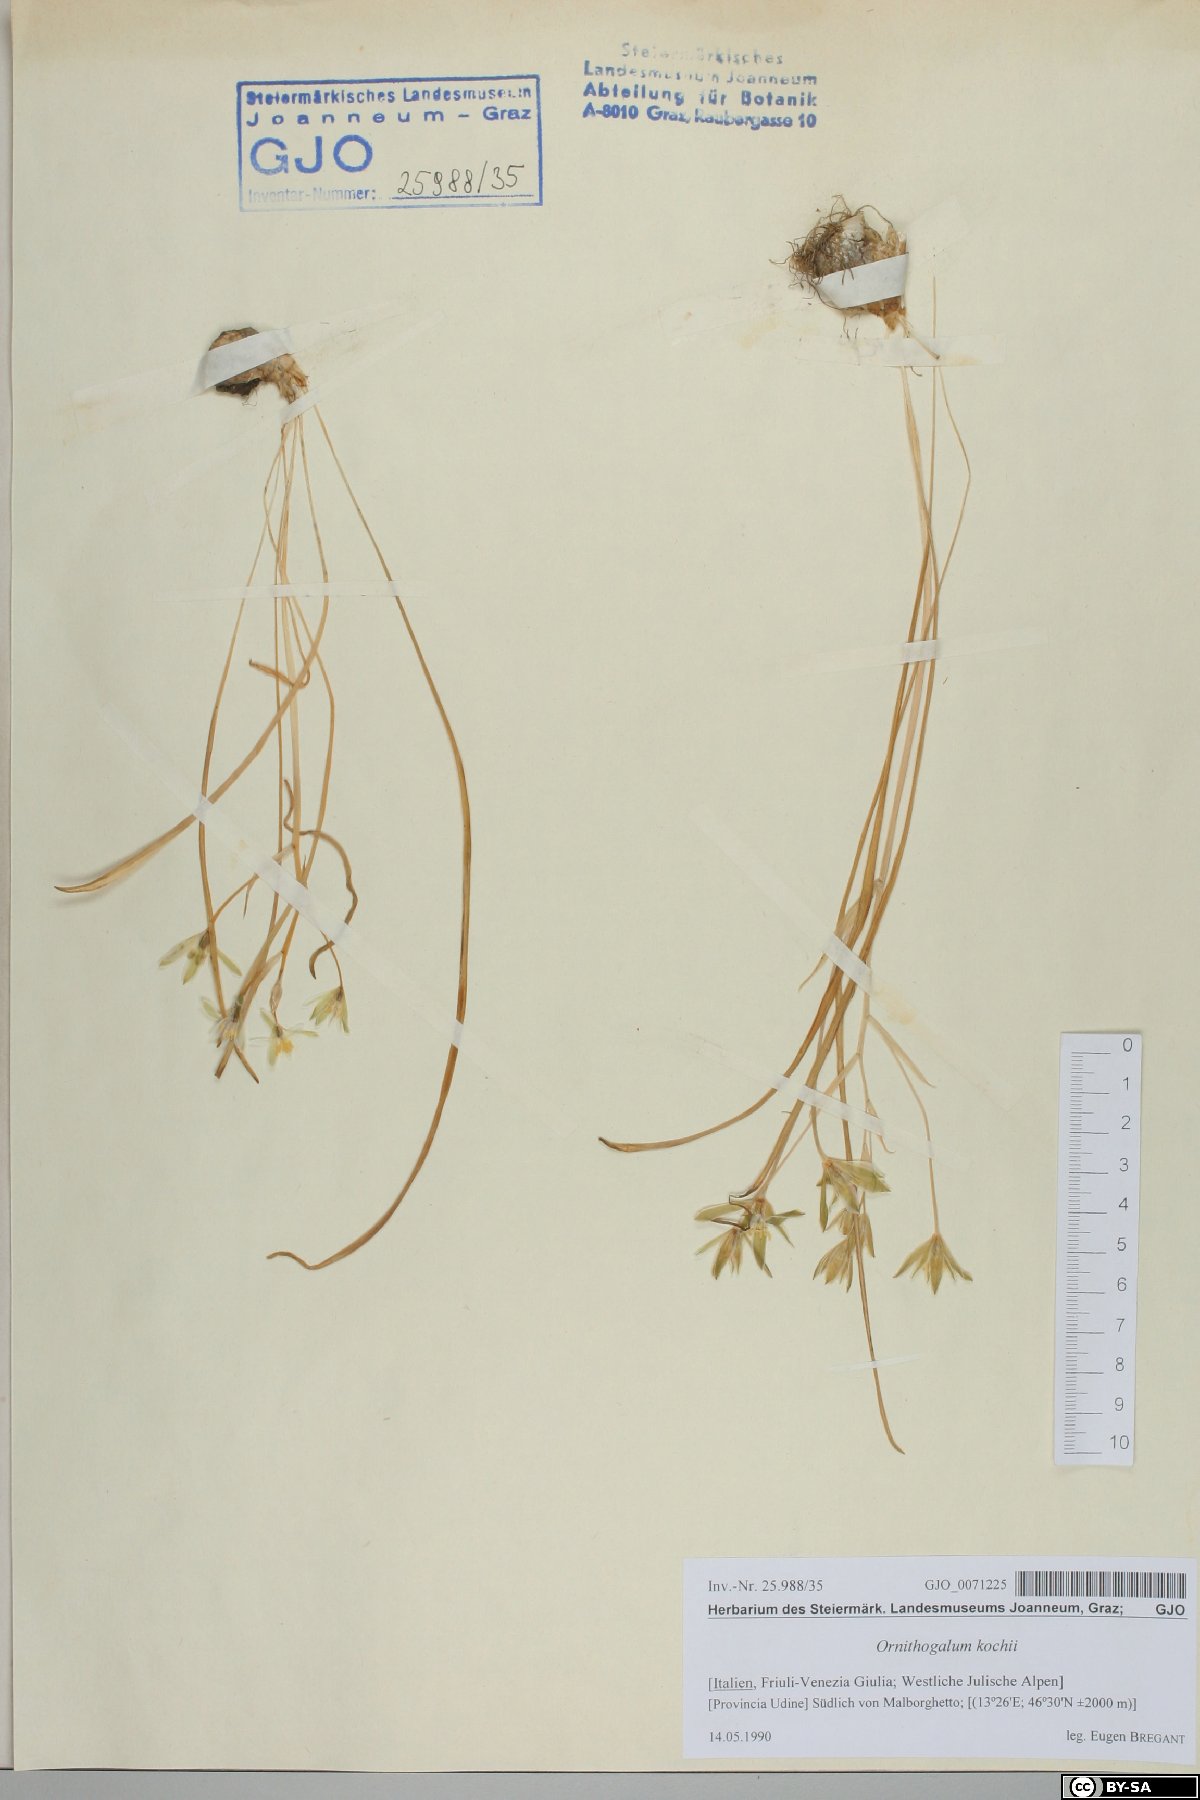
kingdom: Plantae
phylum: Tracheophyta
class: Liliopsida
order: Asparagales
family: Asparagaceae
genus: Ornithogalum
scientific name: Ornithogalum orthophyllum
